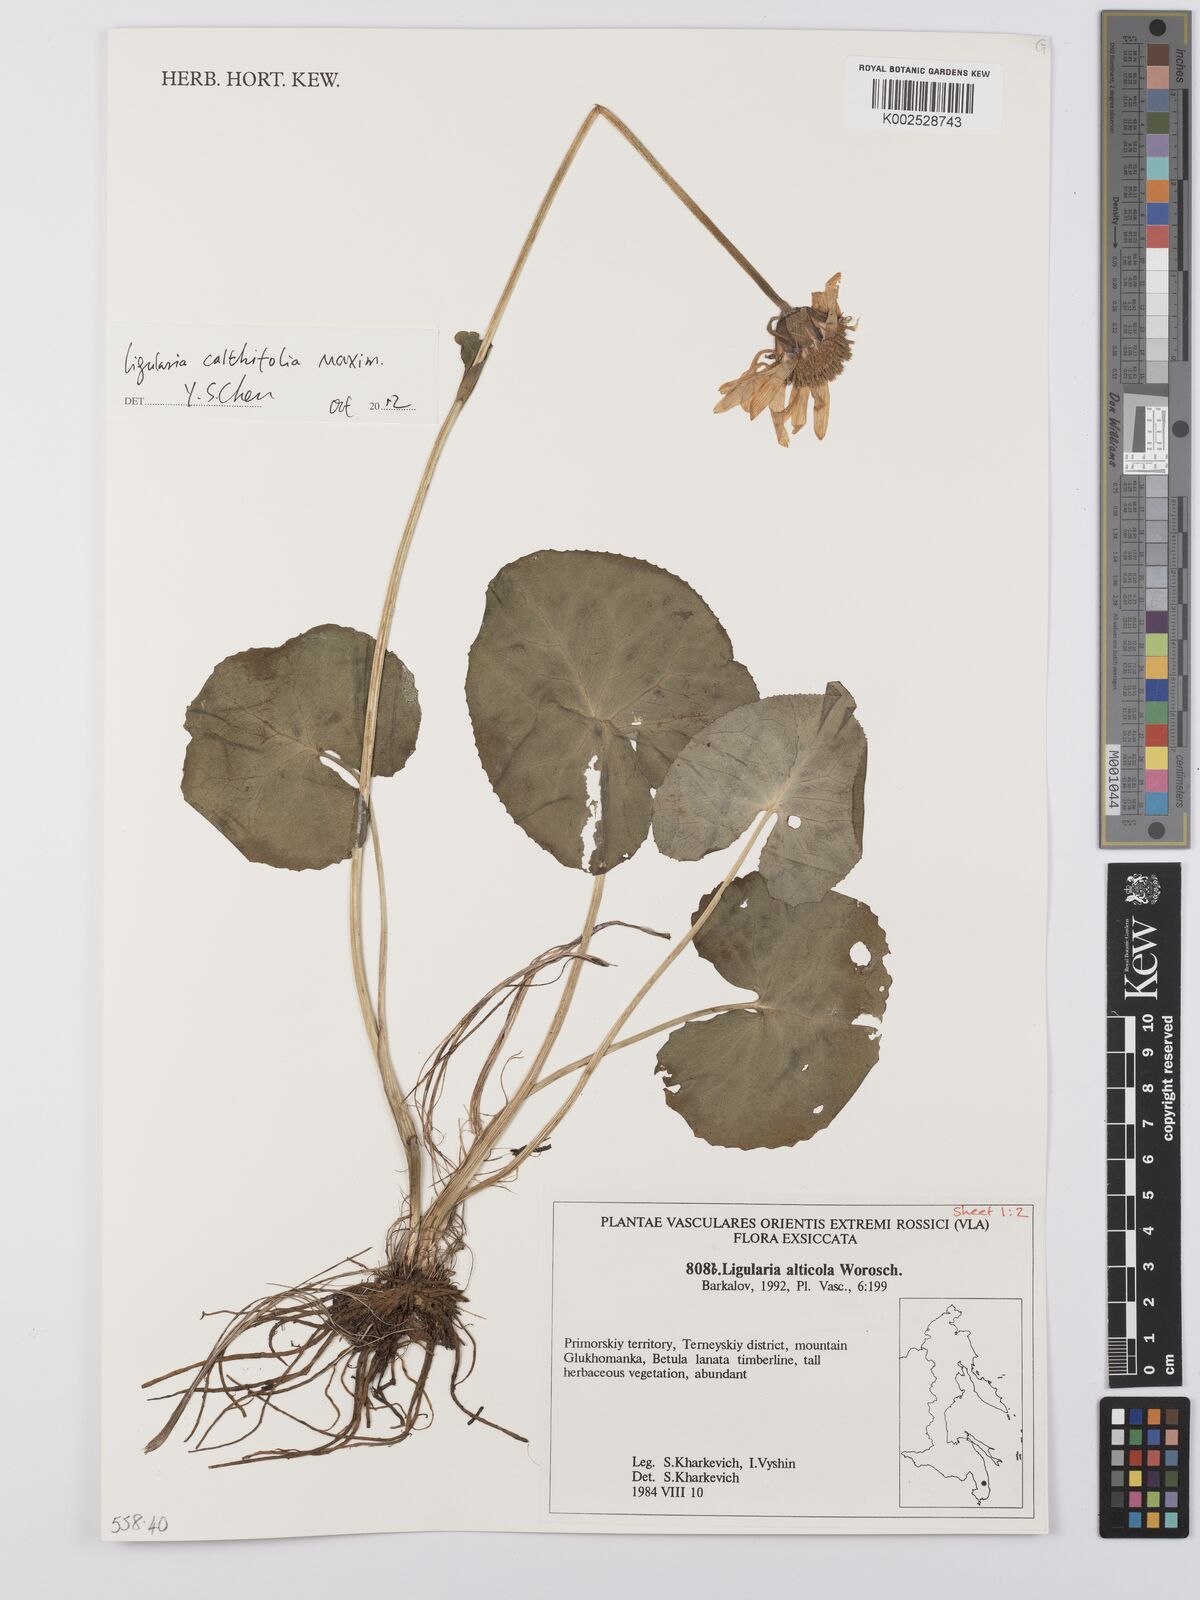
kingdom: Plantae
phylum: Tracheophyta
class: Magnoliopsida
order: Asterales
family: Asteraceae
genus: Ligularia
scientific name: Ligularia alticola
